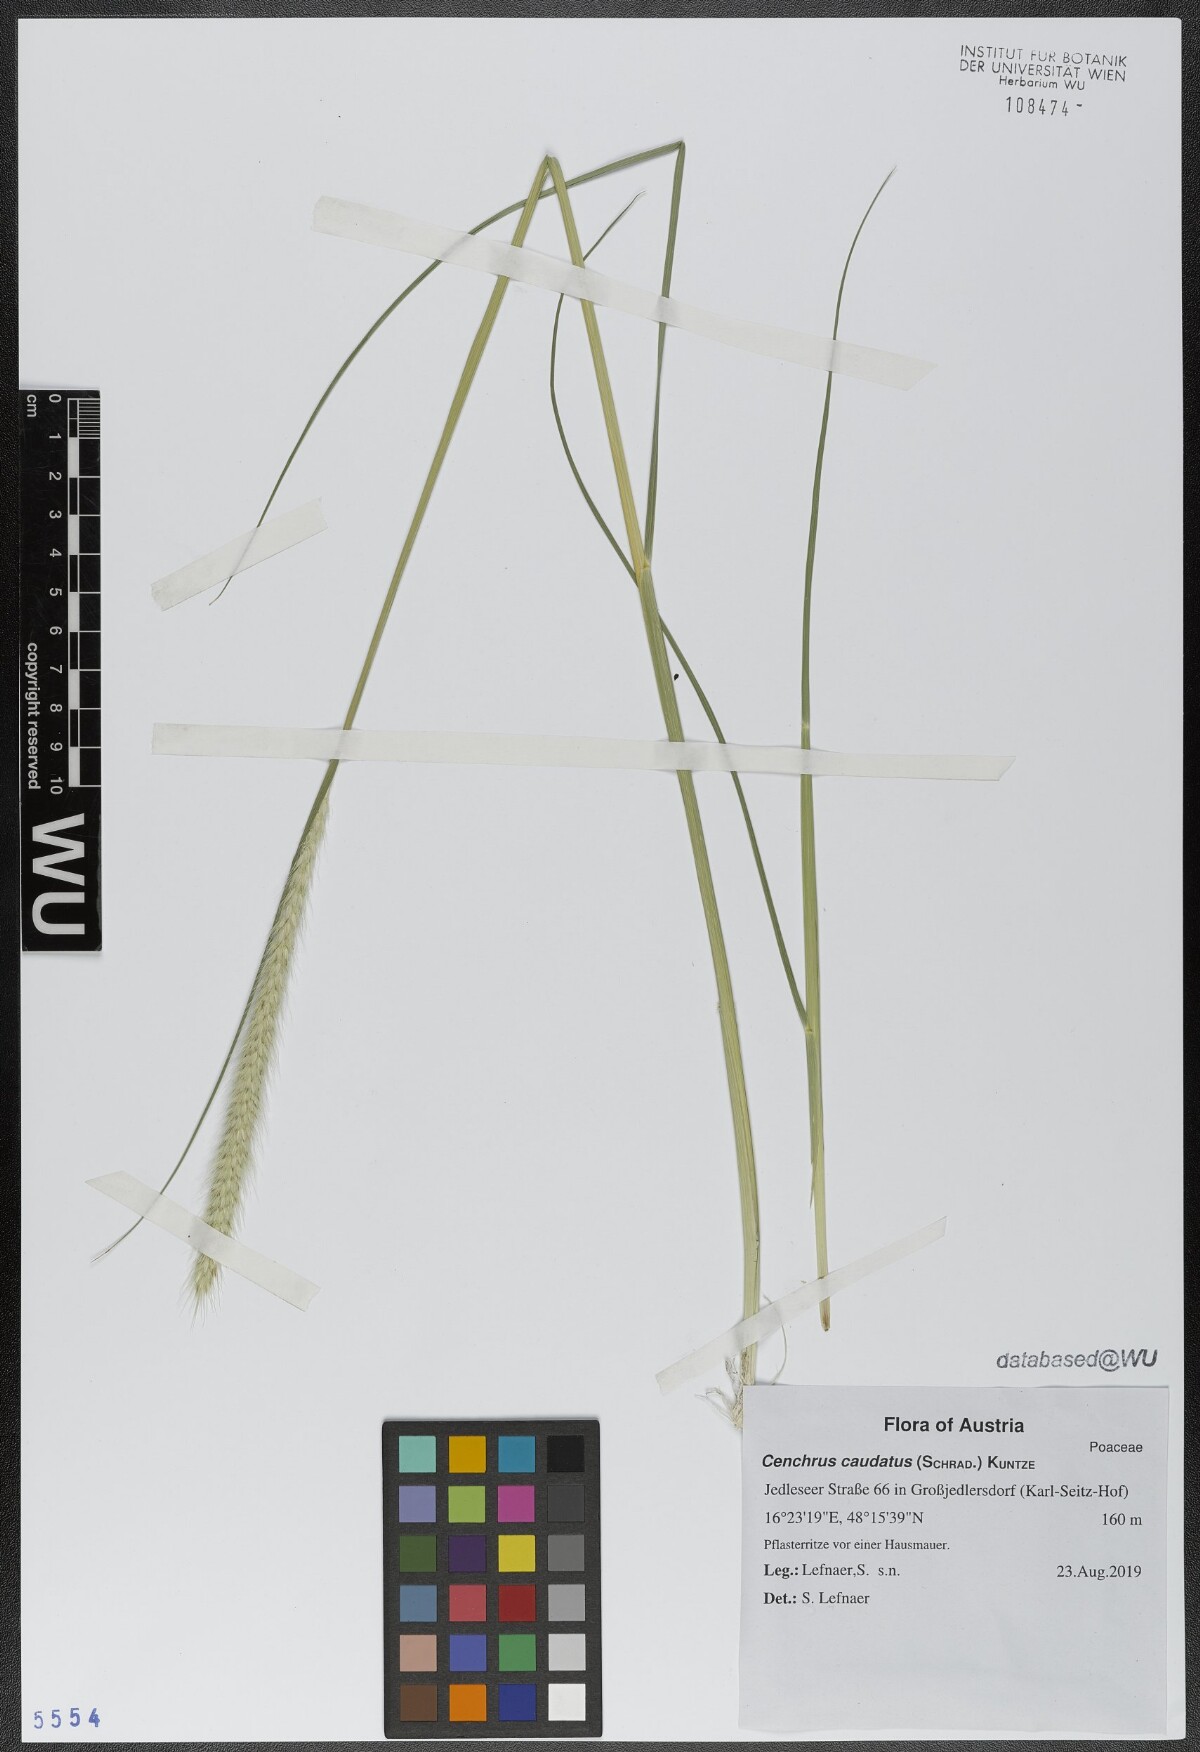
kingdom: Plantae
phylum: Tracheophyta
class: Liliopsida
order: Poales
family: Poaceae
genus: Cenchrus
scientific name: Cenchrus caudatus
